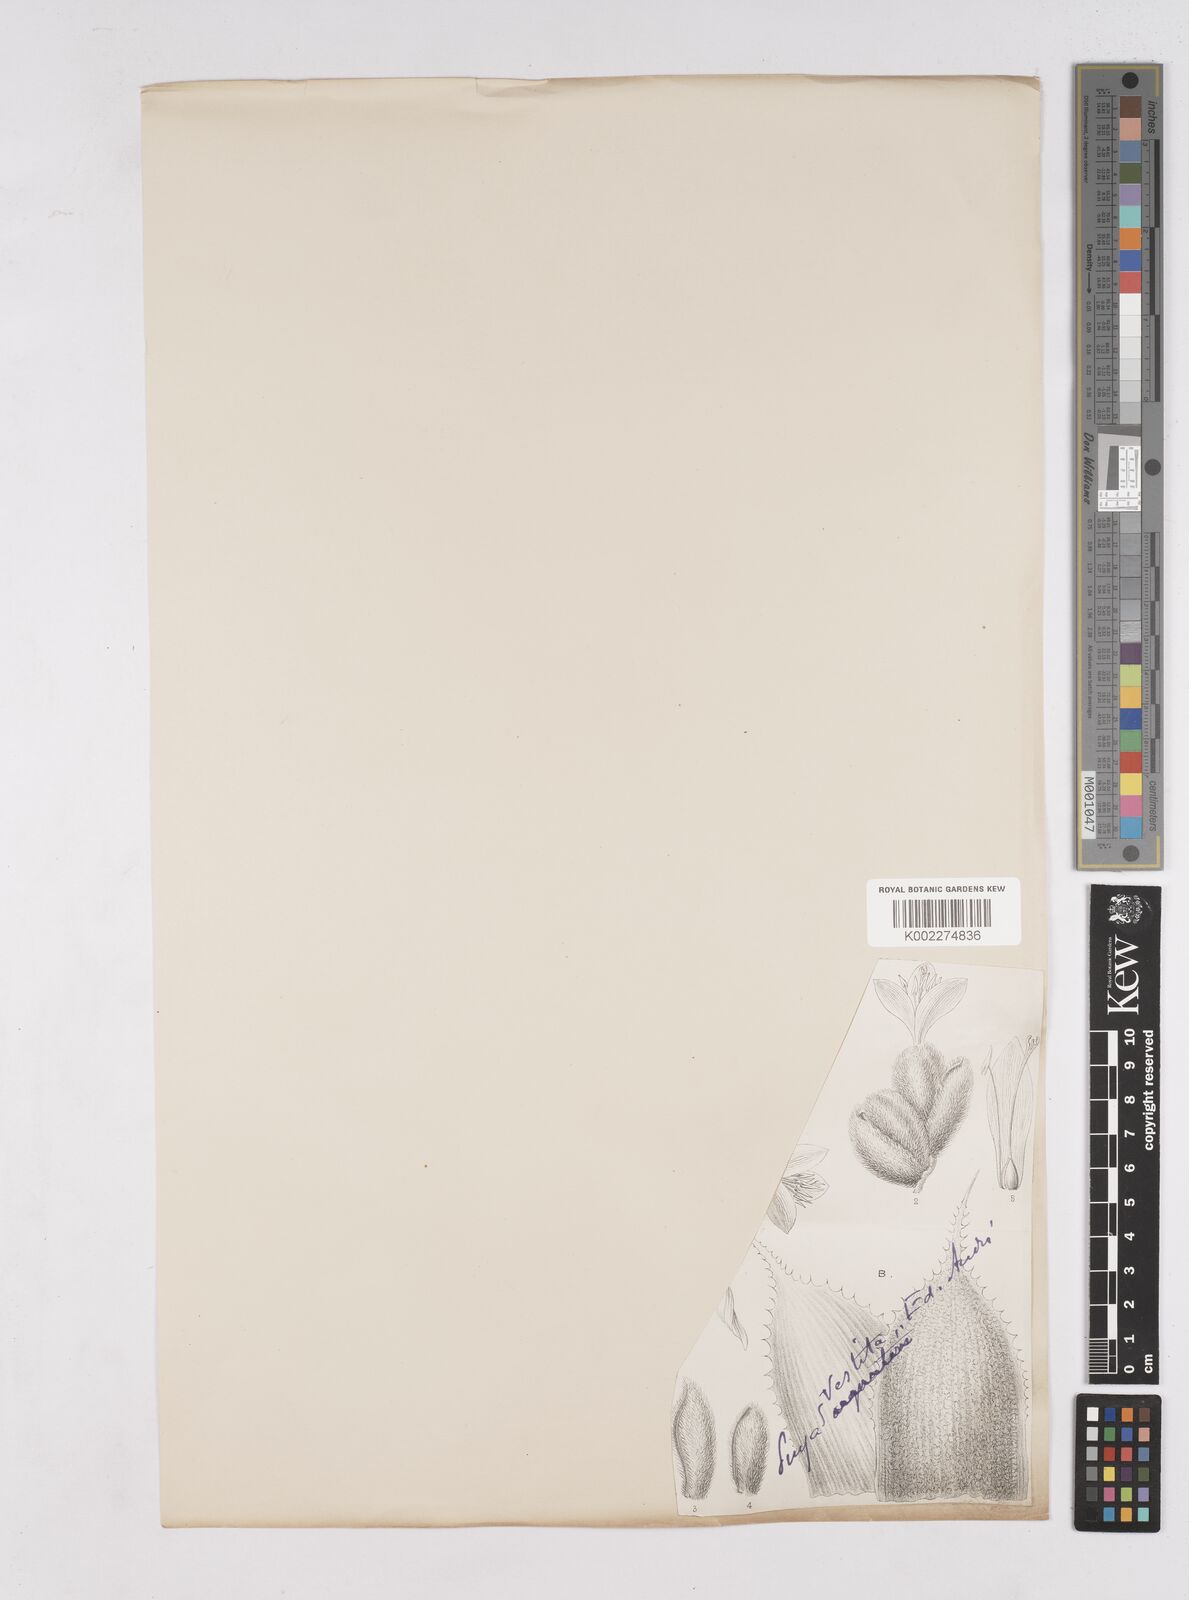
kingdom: Plantae
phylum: Tracheophyta
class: Liliopsida
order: Poales
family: Bromeliaceae
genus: Puya
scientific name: Puya vestita
